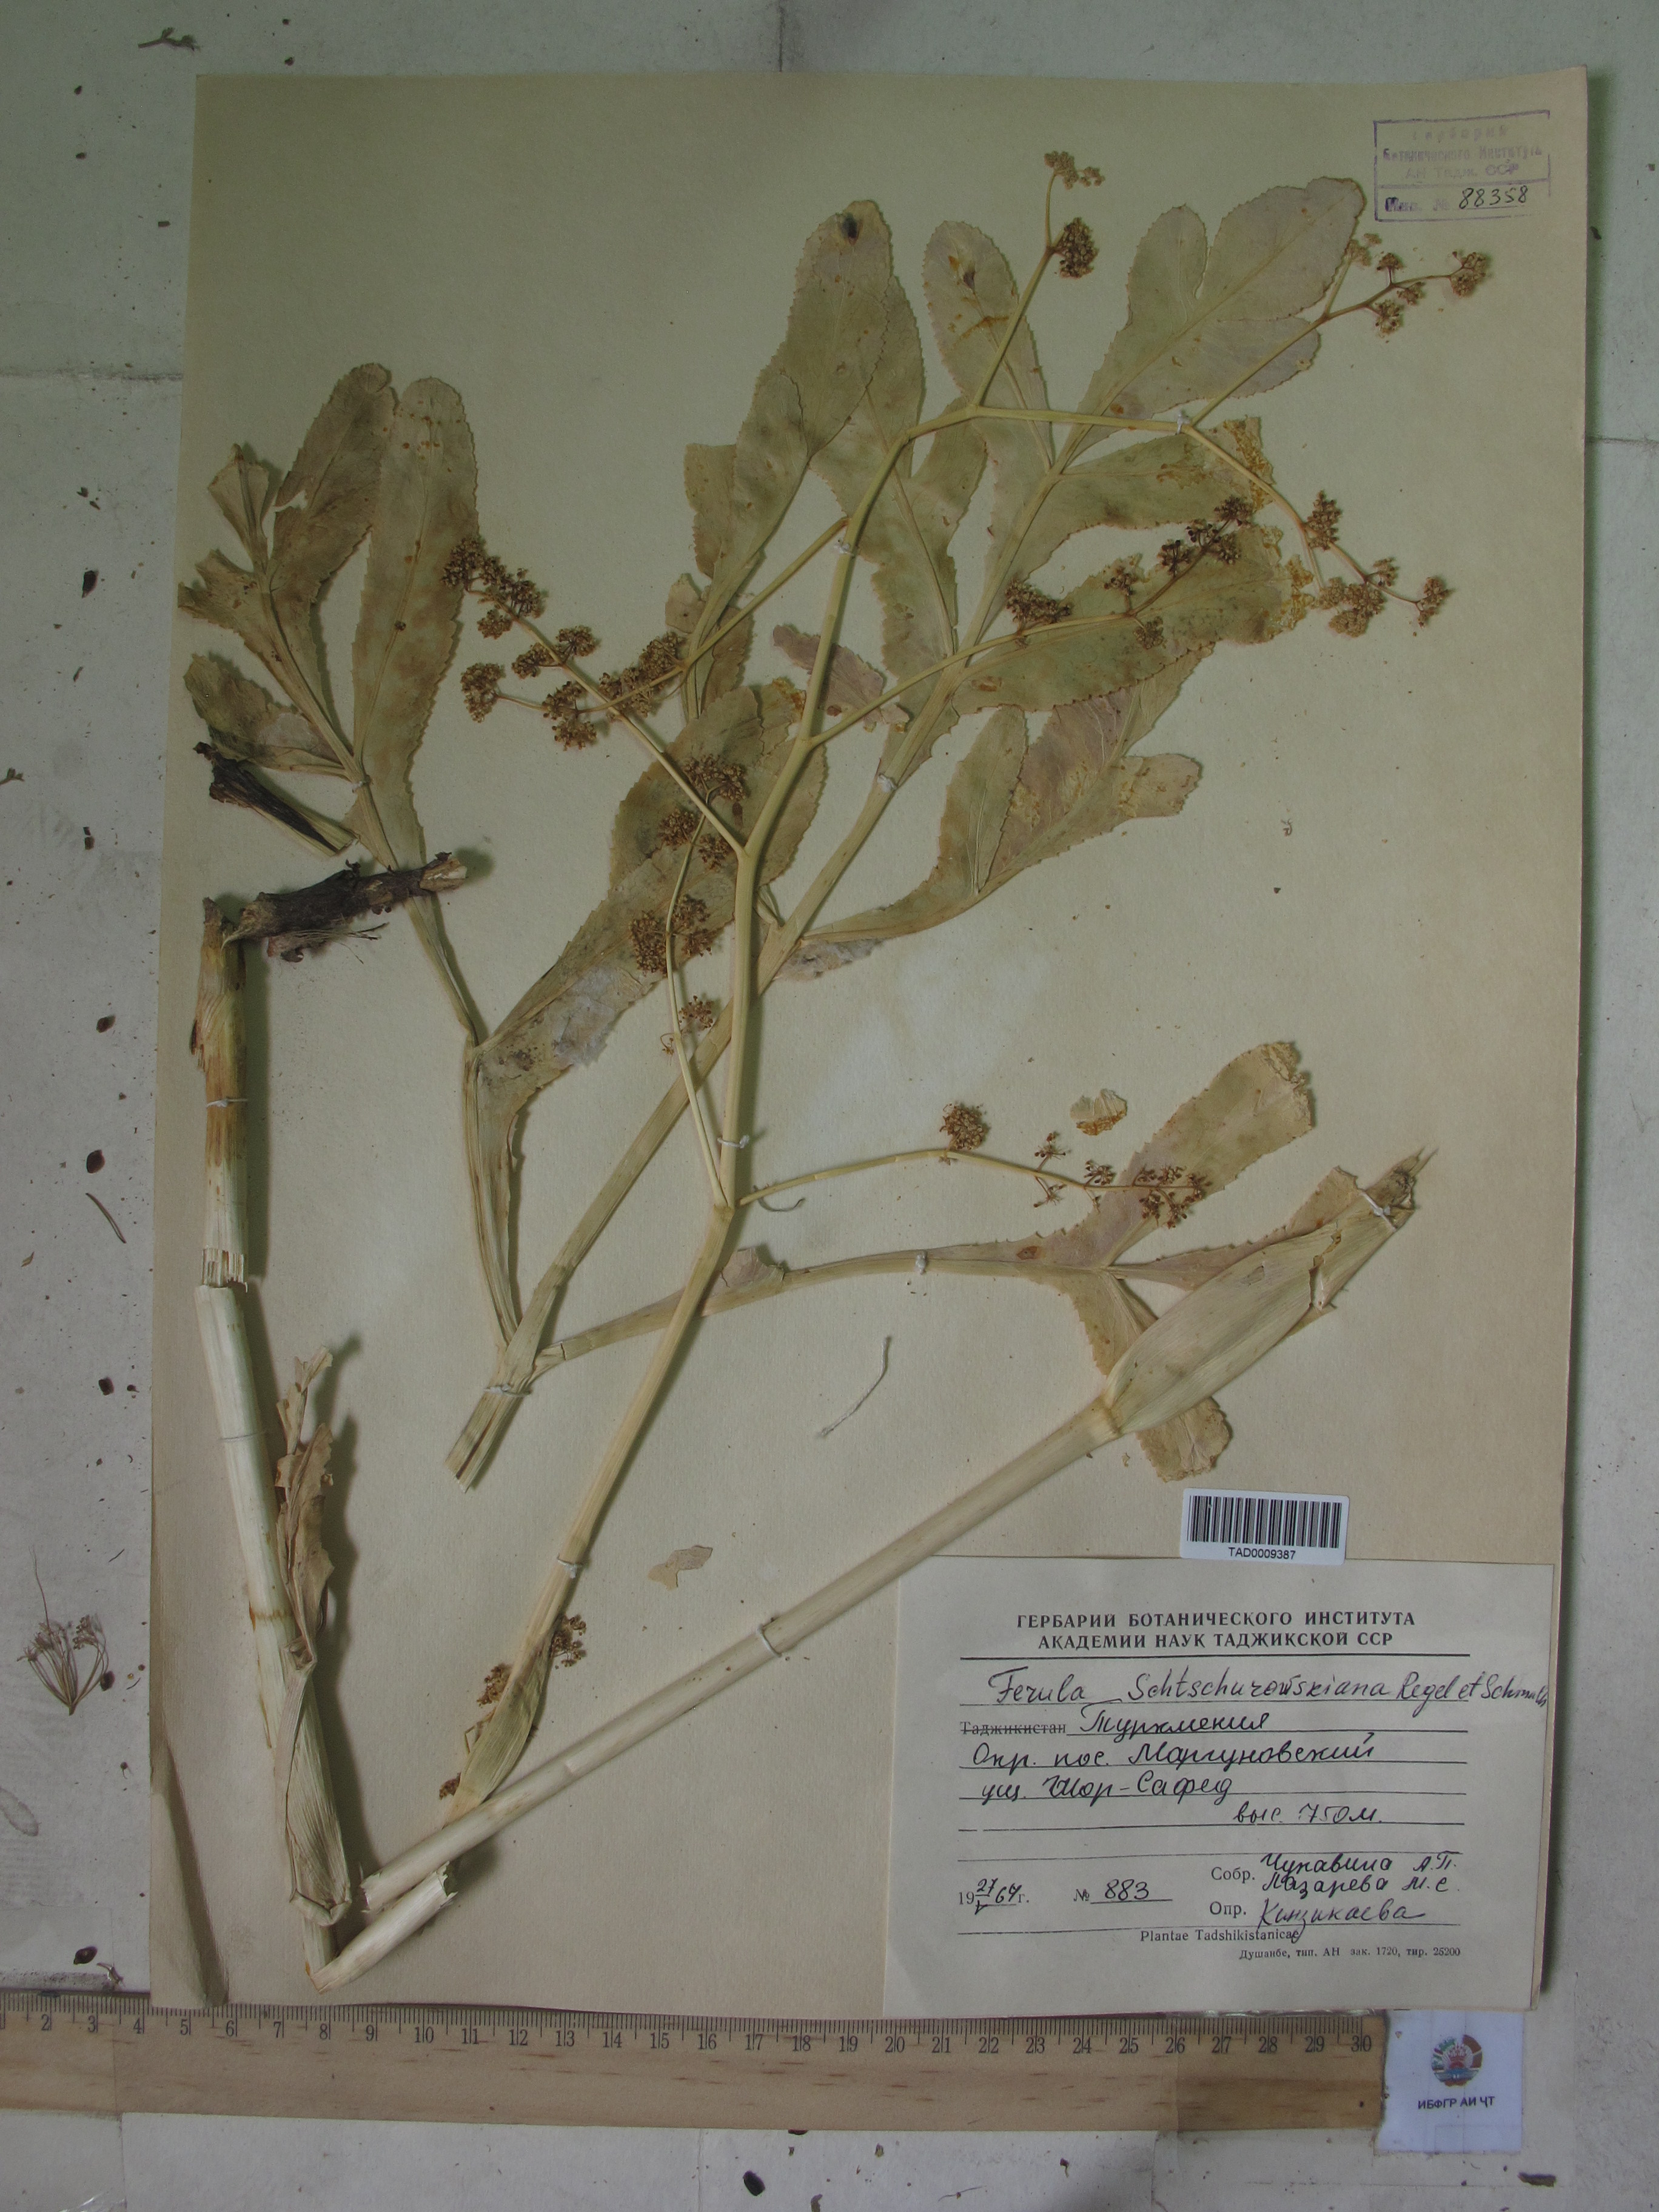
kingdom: Plantae
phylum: Tracheophyta
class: Magnoliopsida
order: Apiales
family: Apiaceae
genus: Ferula
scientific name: Ferula schtschurowskiana
